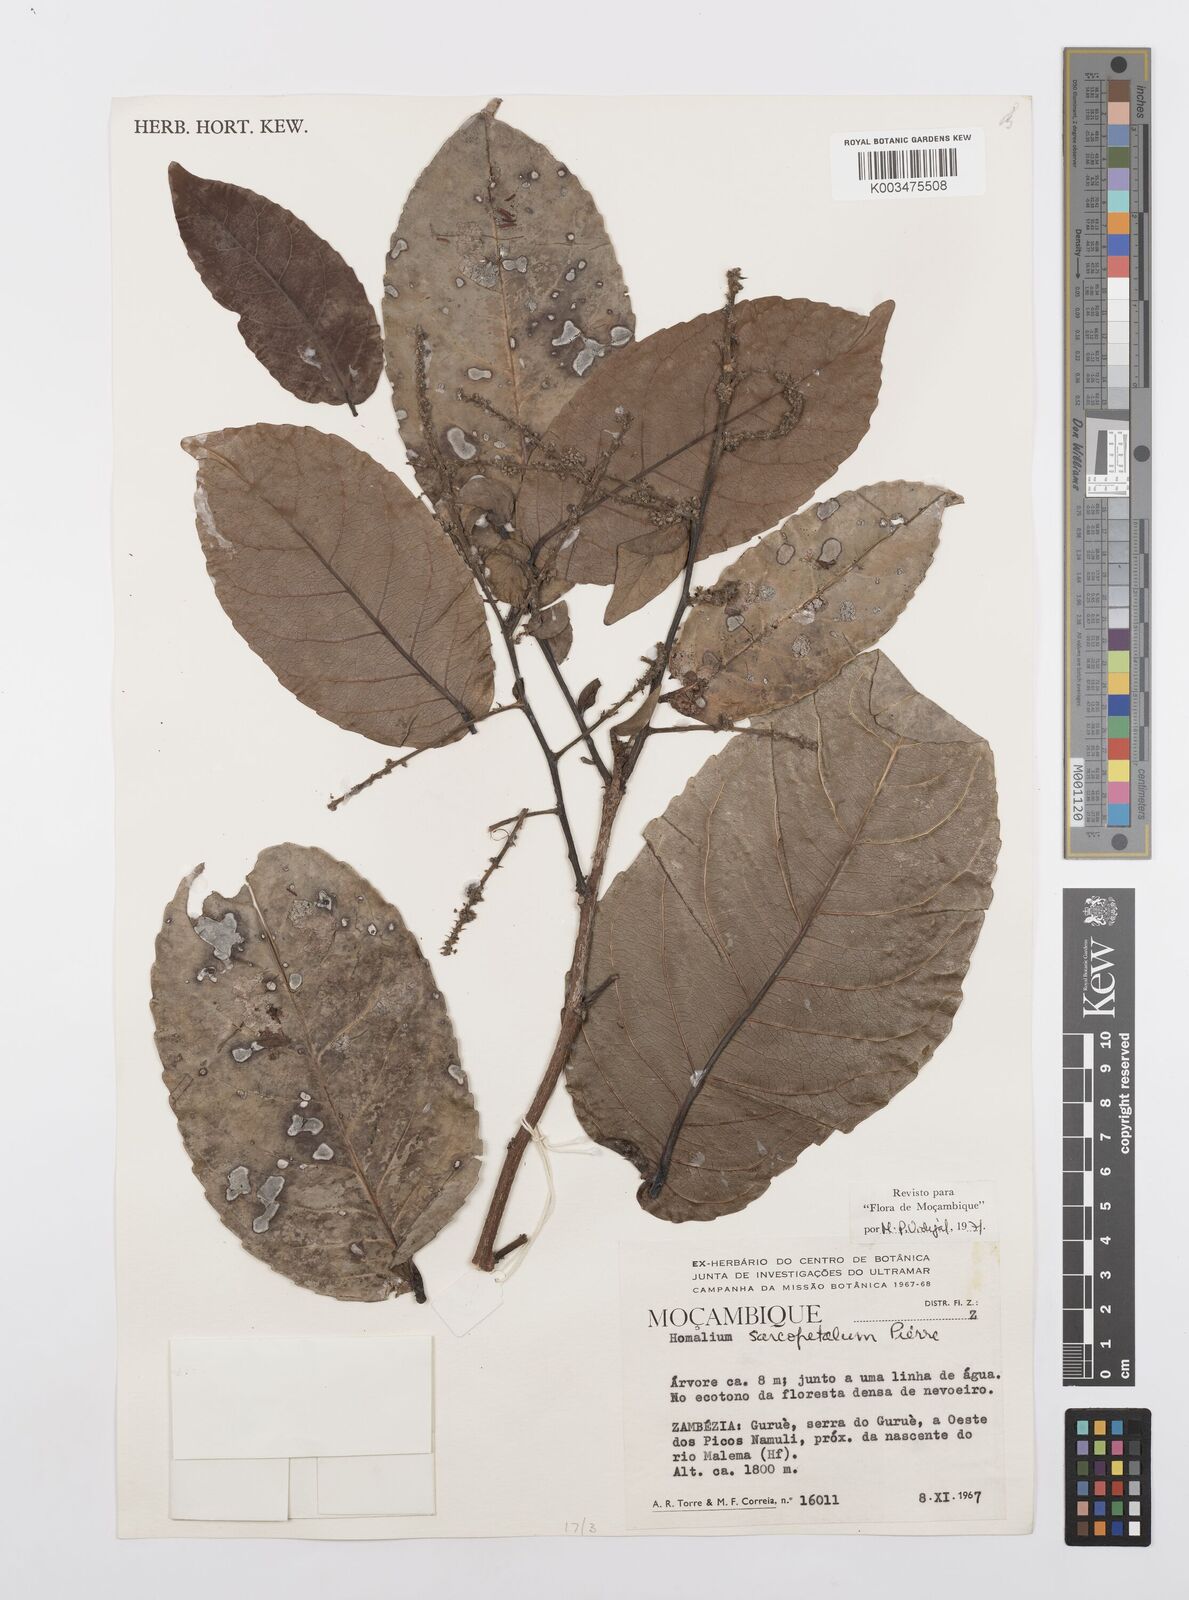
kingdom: Plantae
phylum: Tracheophyta
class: Magnoliopsida
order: Malpighiales
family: Salicaceae
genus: Homalium
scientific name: Homalium africanum
